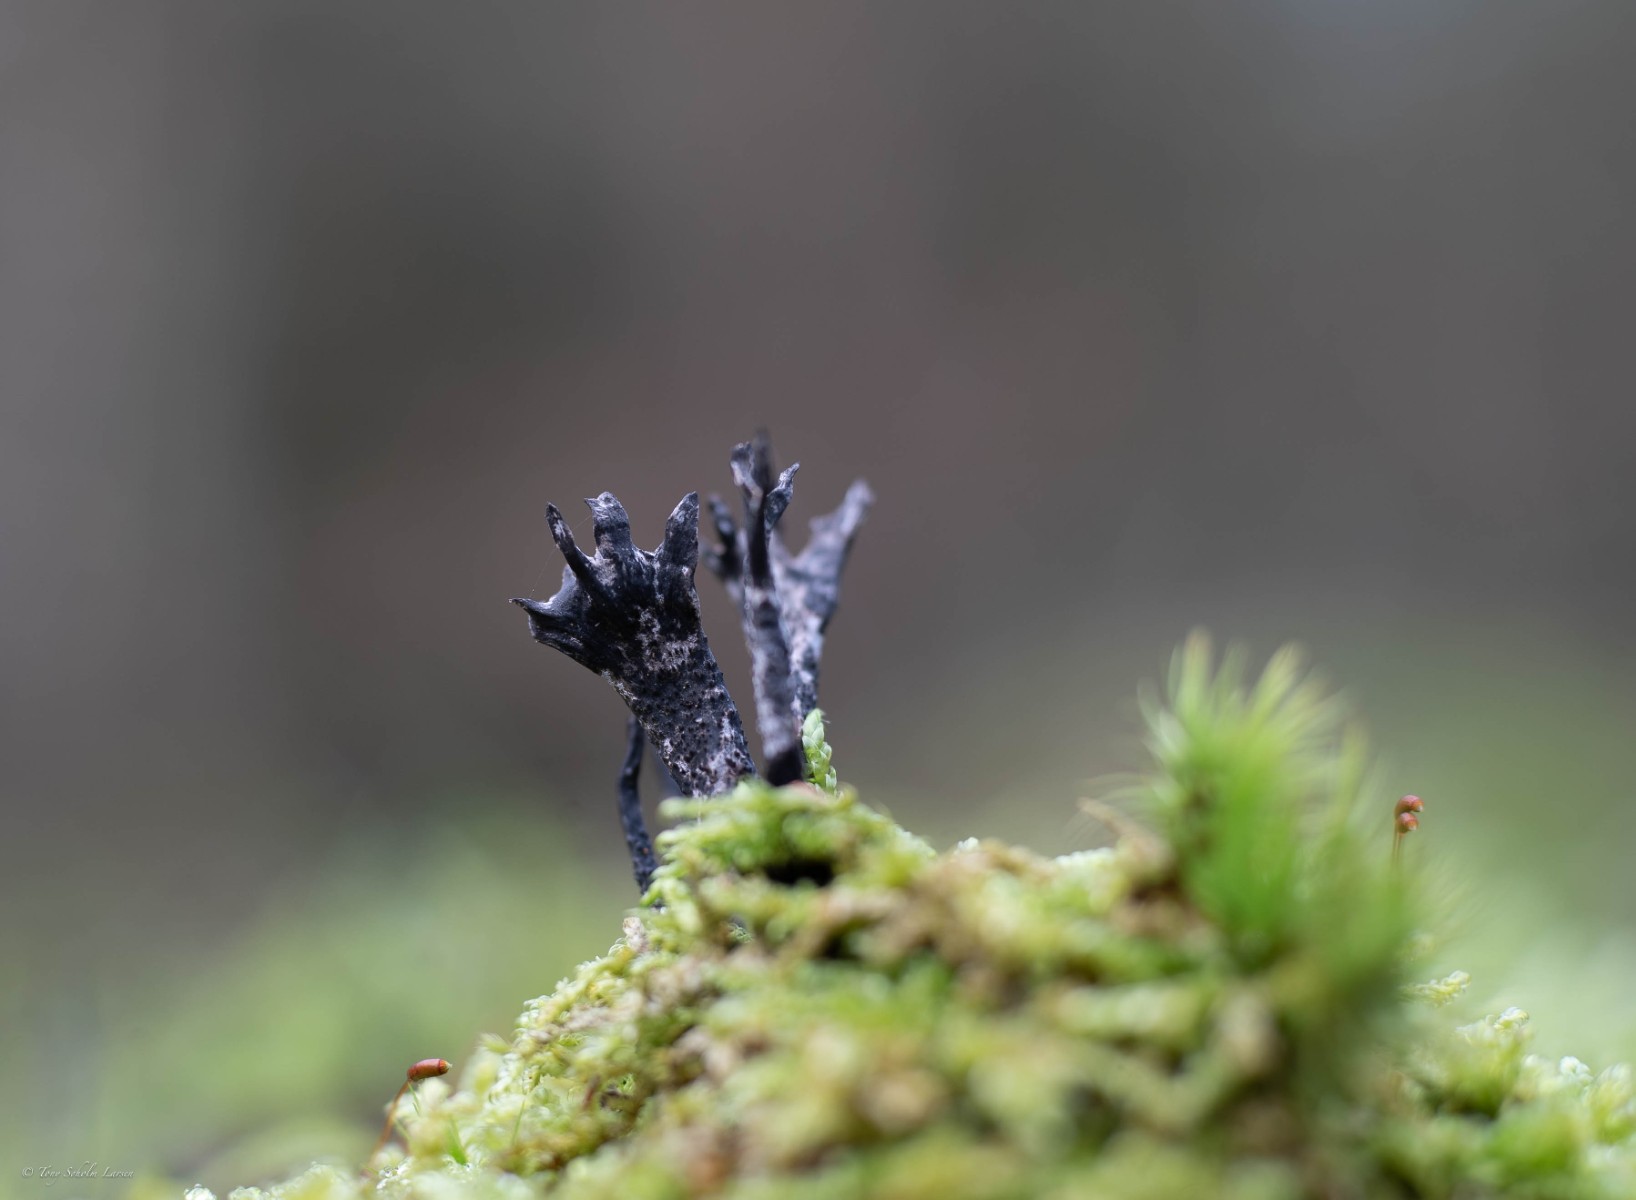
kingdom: Fungi
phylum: Ascomycota
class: Sordariomycetes
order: Xylariales
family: Xylariaceae
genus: Xylaria
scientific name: Xylaria hypoxylon
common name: grenet stødsvamp
